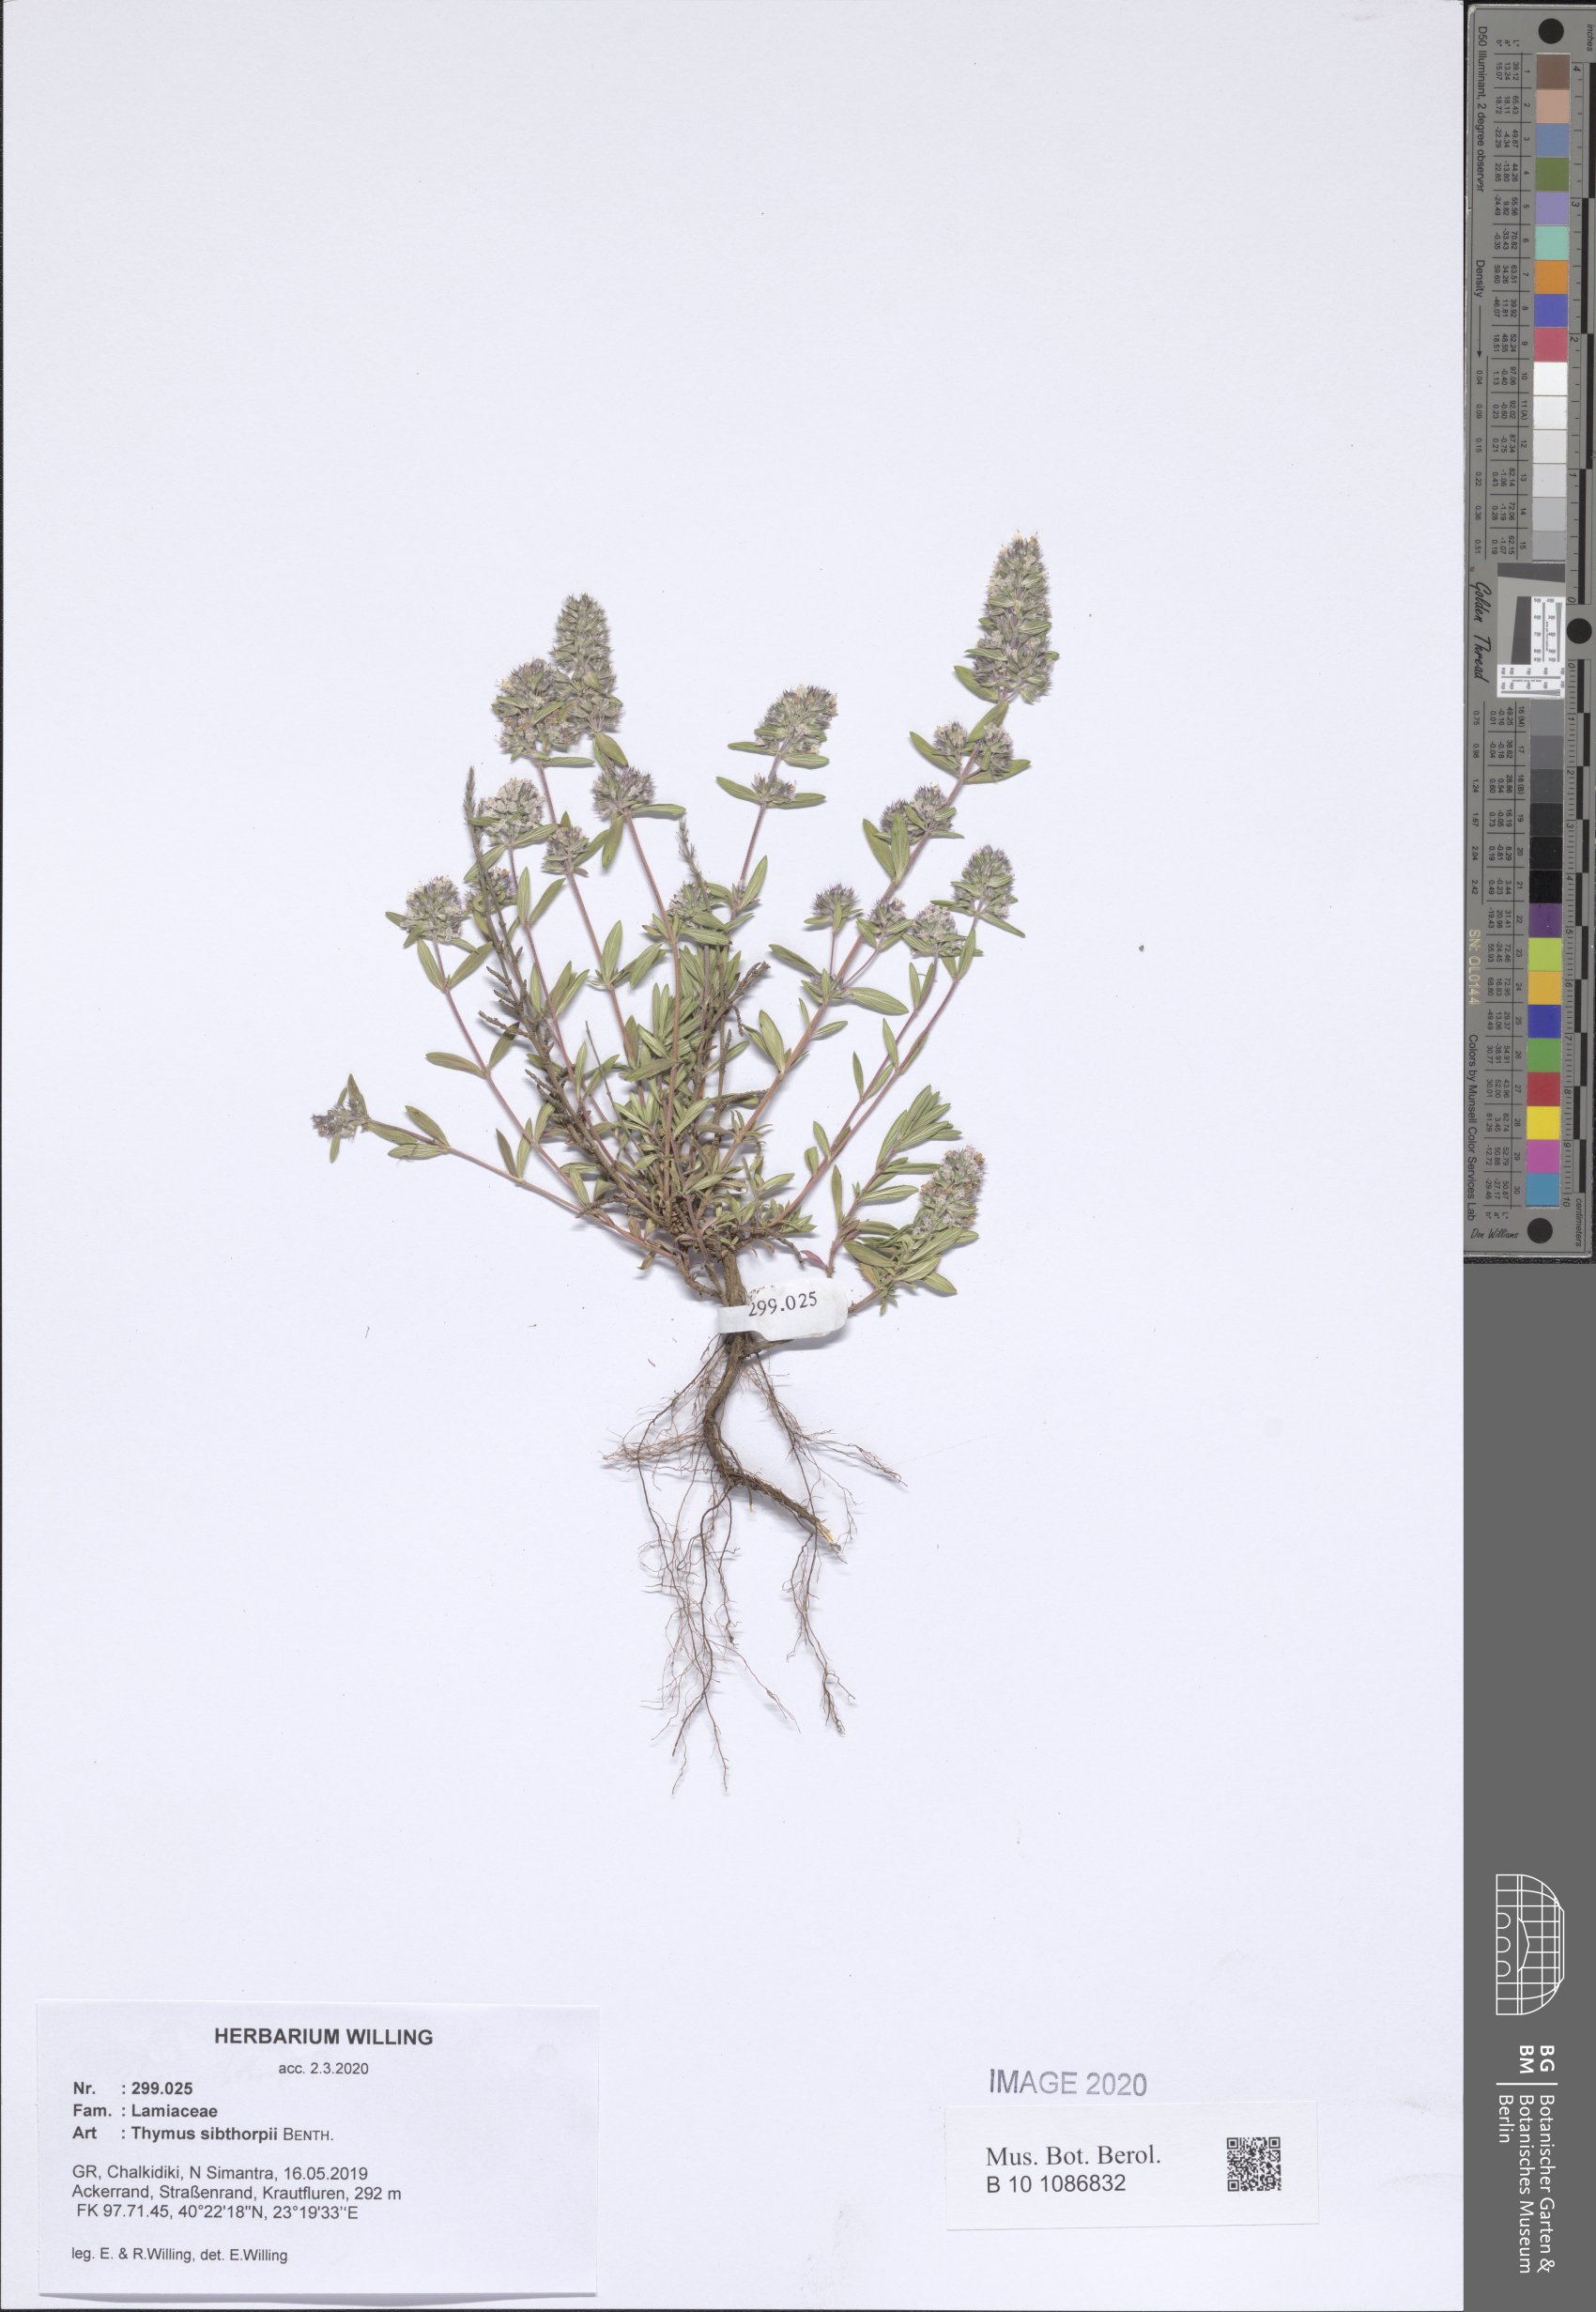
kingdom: Plantae
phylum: Tracheophyta
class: Magnoliopsida
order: Lamiales
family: Lamiaceae
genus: Thymus
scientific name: Thymus sibthorpii
